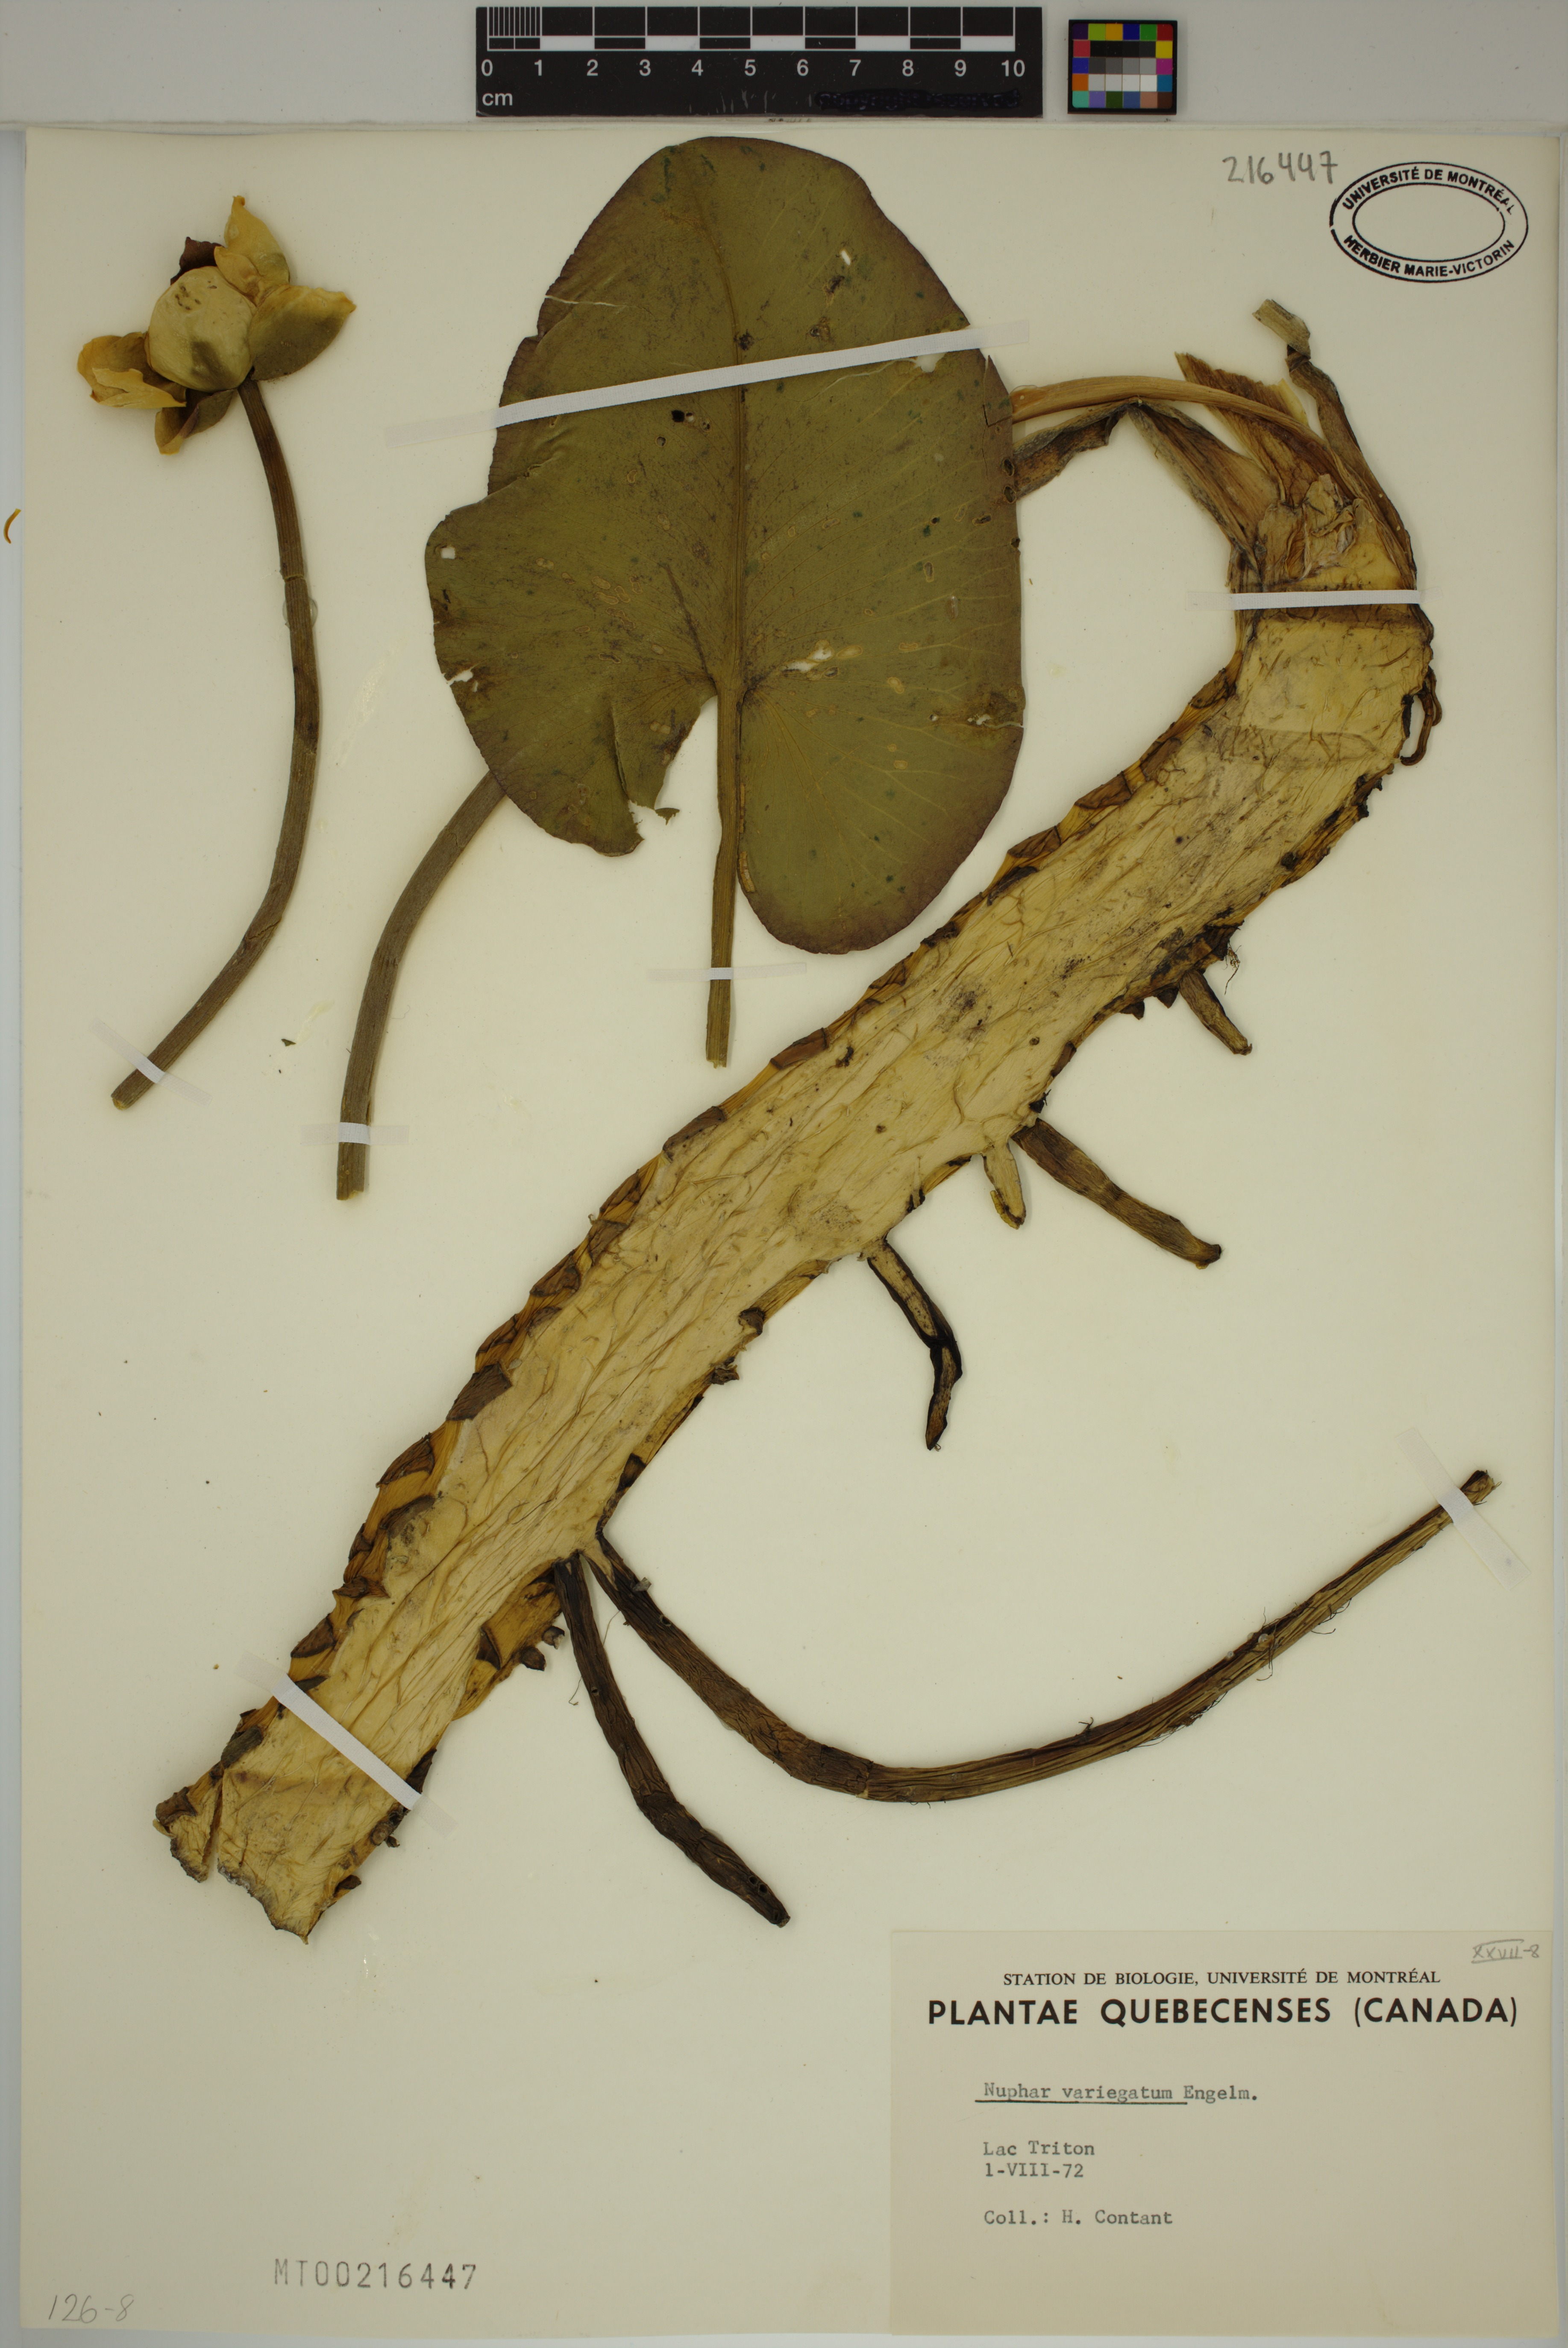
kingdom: Plantae
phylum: Tracheophyta
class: Magnoliopsida
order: Nymphaeales
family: Nymphaeaceae
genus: Nuphar
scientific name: Nuphar variegata
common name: Beaver-root
